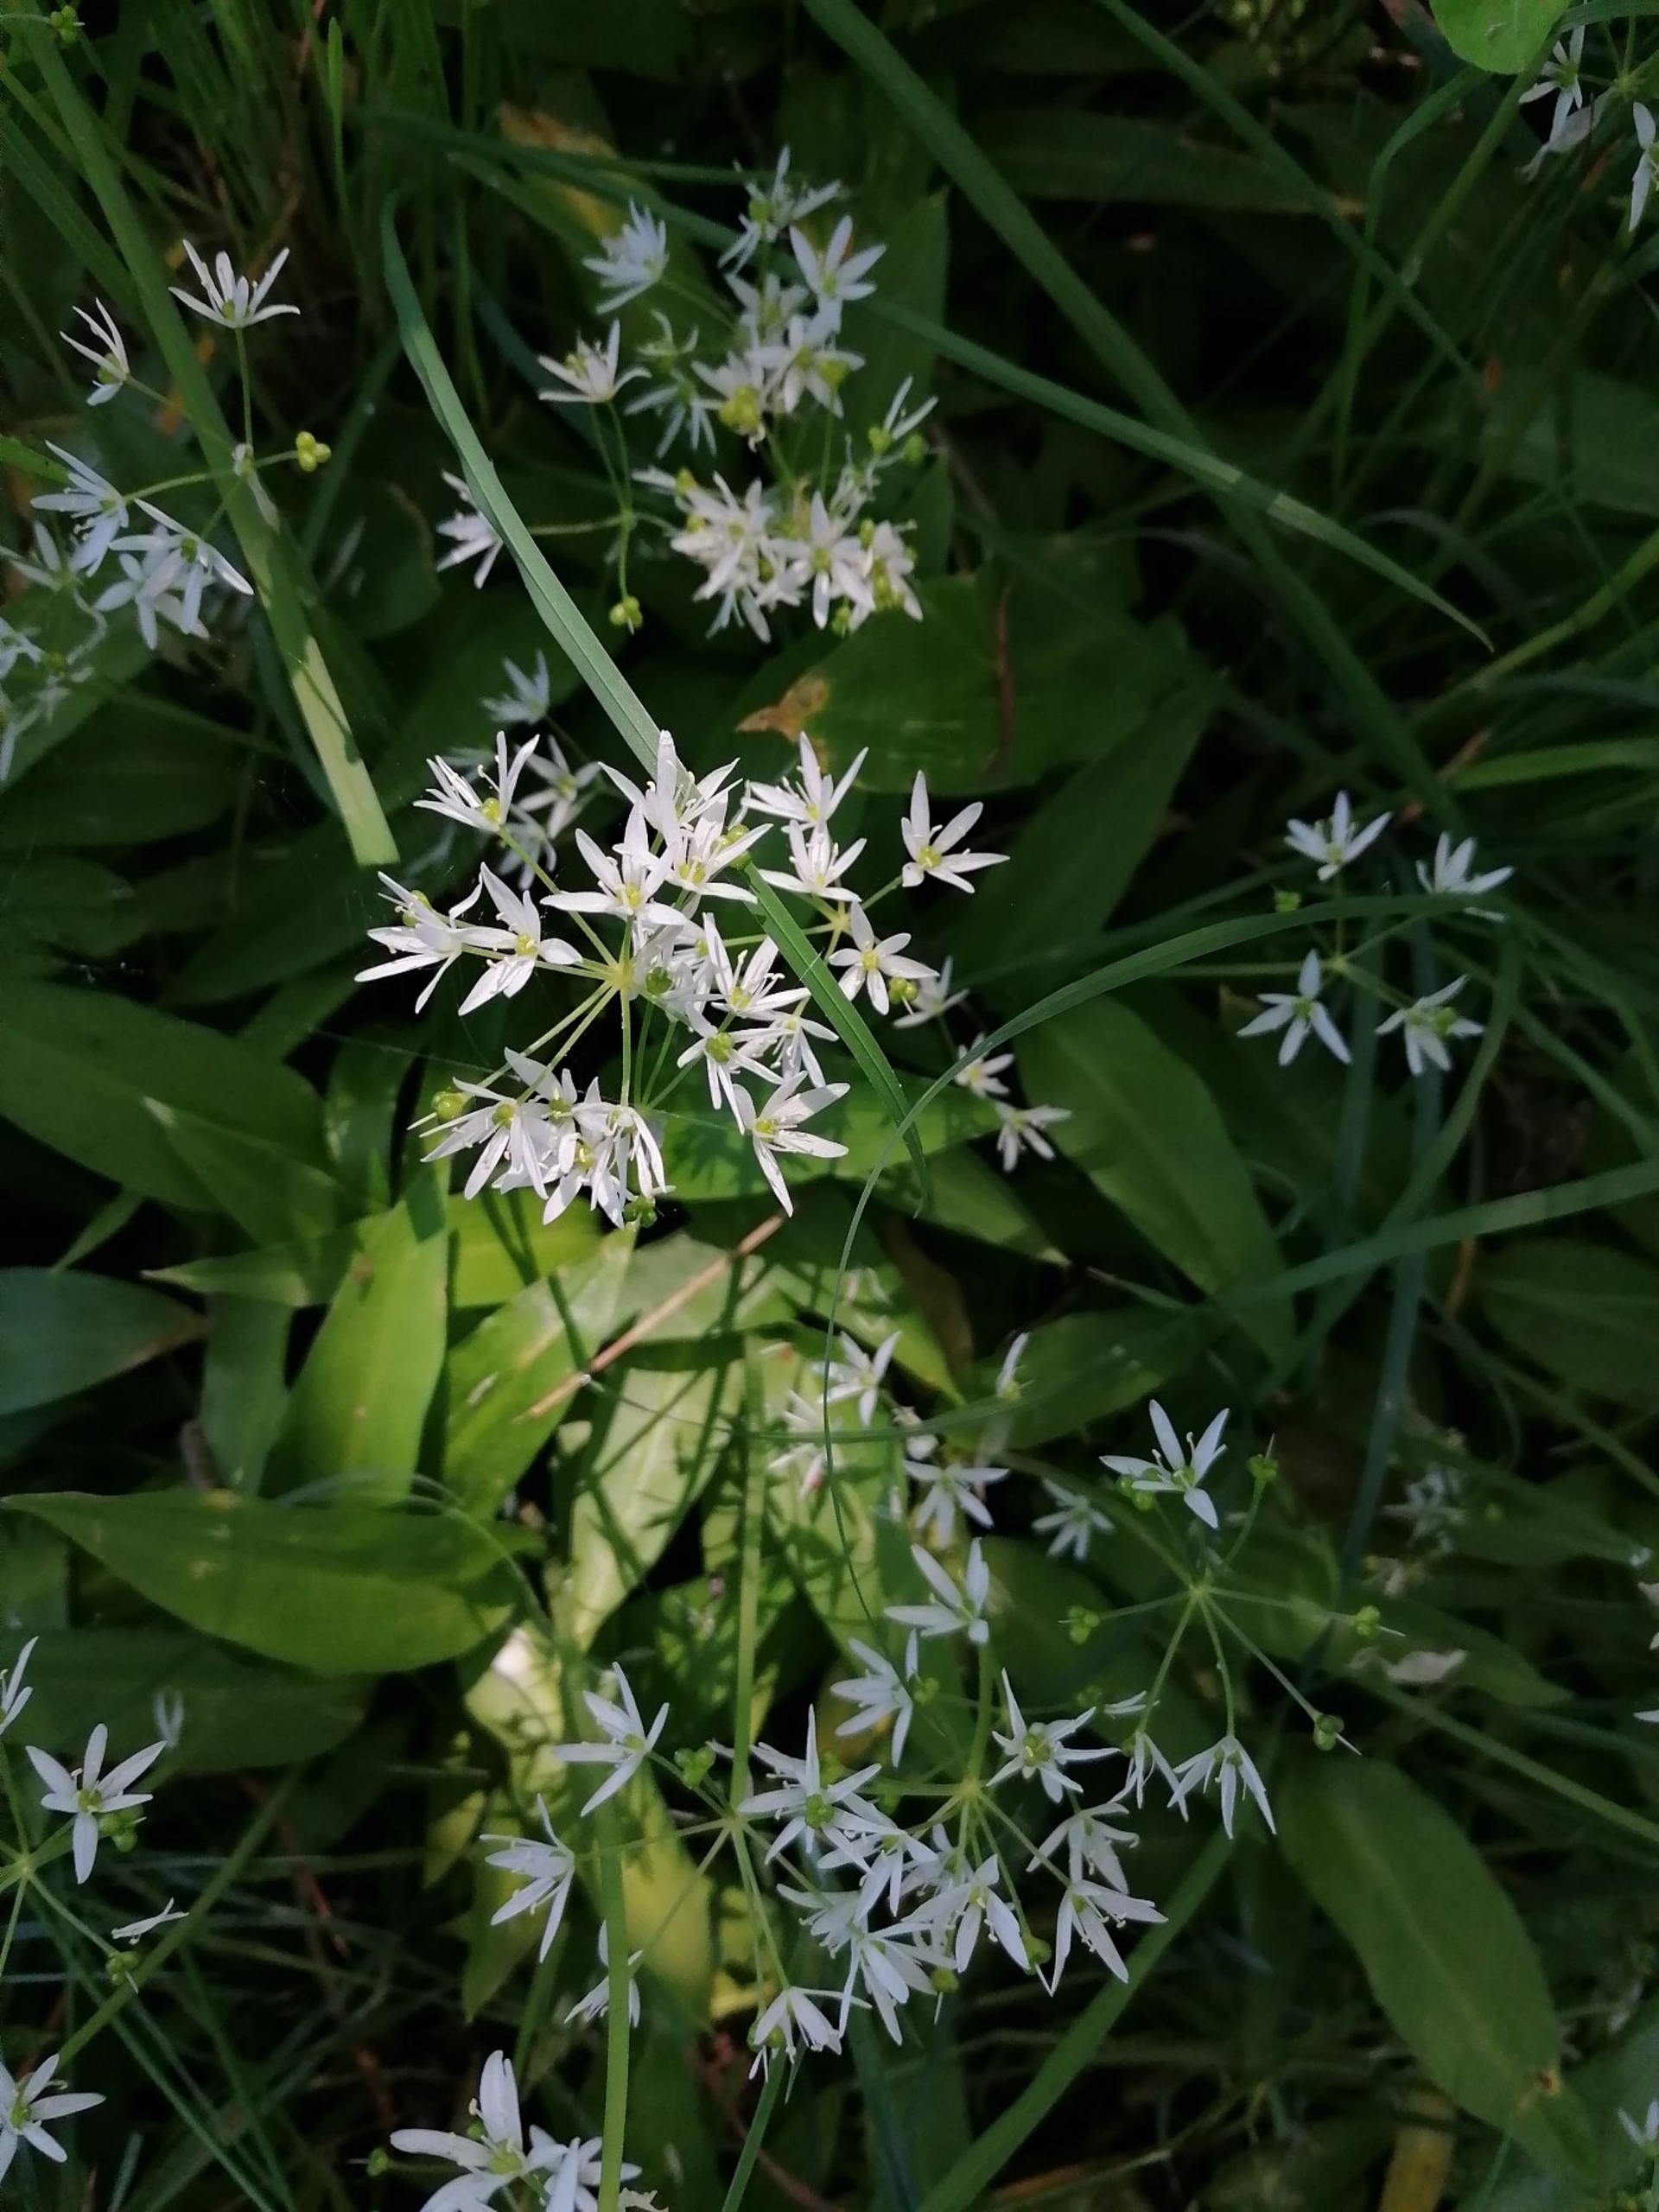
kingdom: Plantae
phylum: Tracheophyta
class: Liliopsida
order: Asparagales
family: Amaryllidaceae
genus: Allium
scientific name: Allium ursinum
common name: Rams-løg
